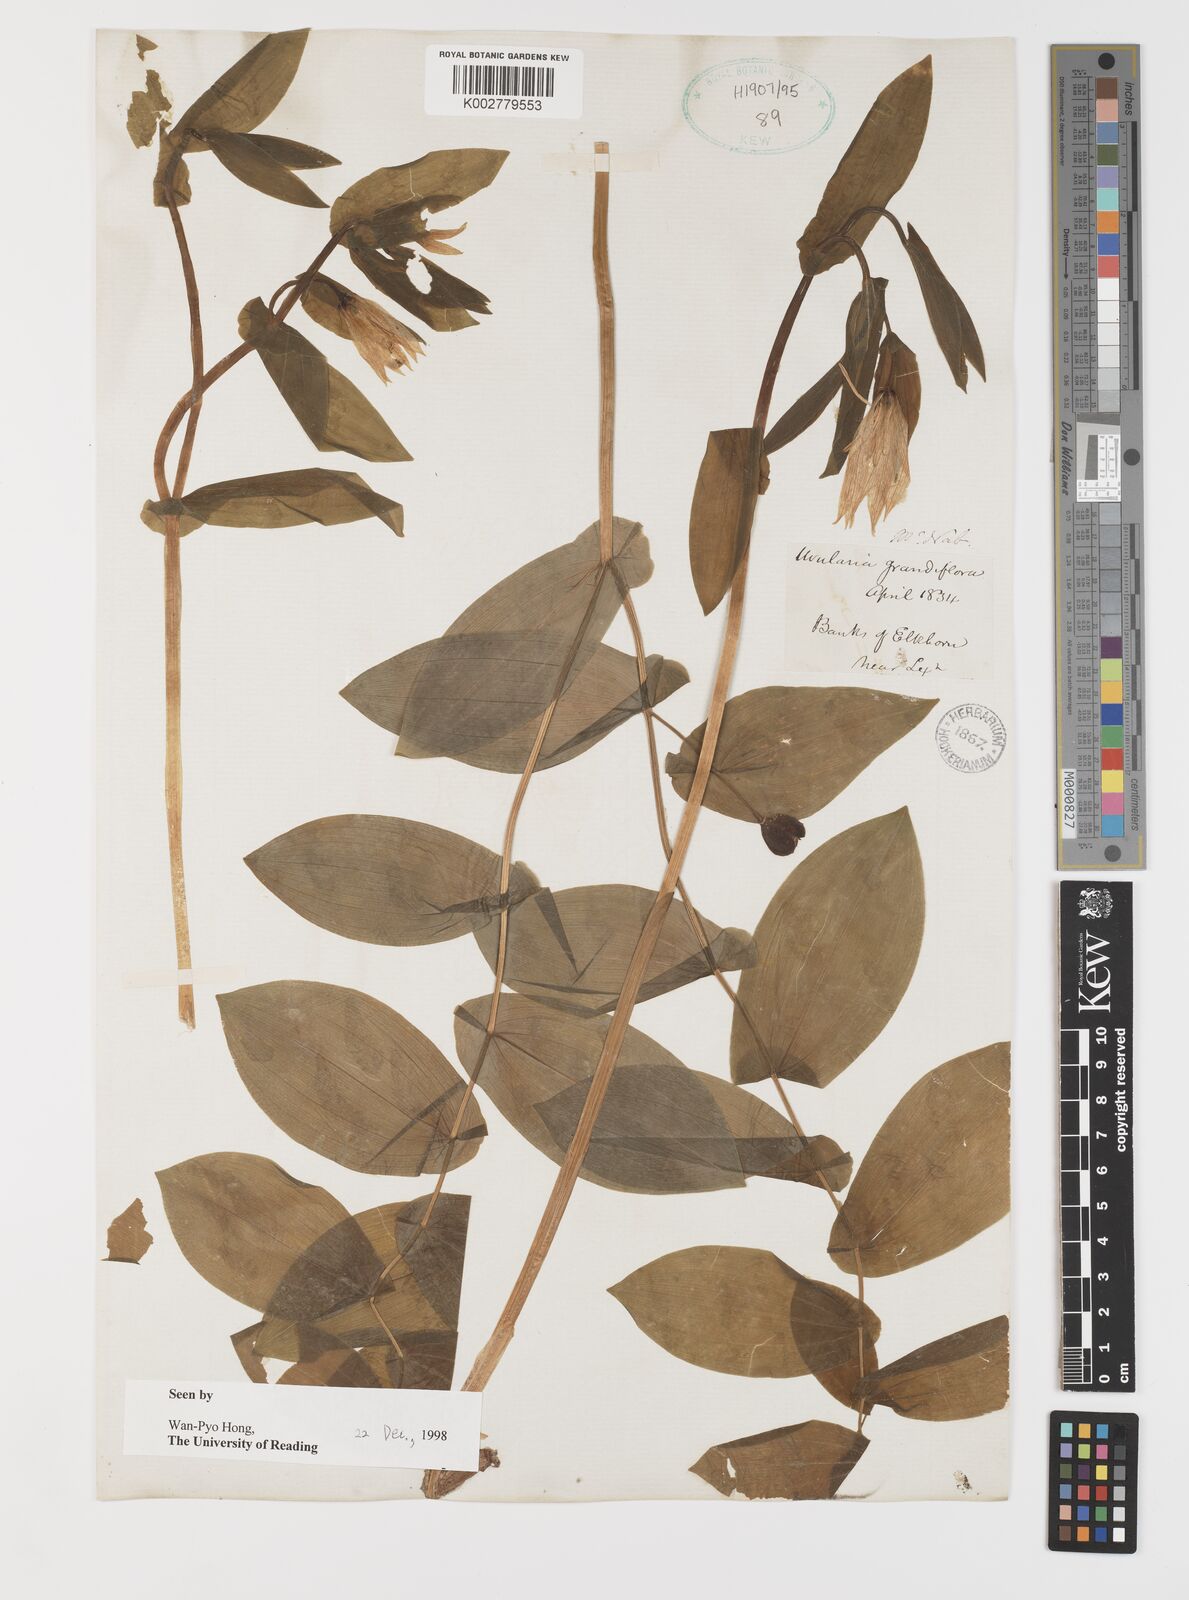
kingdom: Plantae
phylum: Tracheophyta
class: Liliopsida
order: Liliales
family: Colchicaceae
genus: Uvularia
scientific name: Uvularia grandiflora
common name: Bellwort
